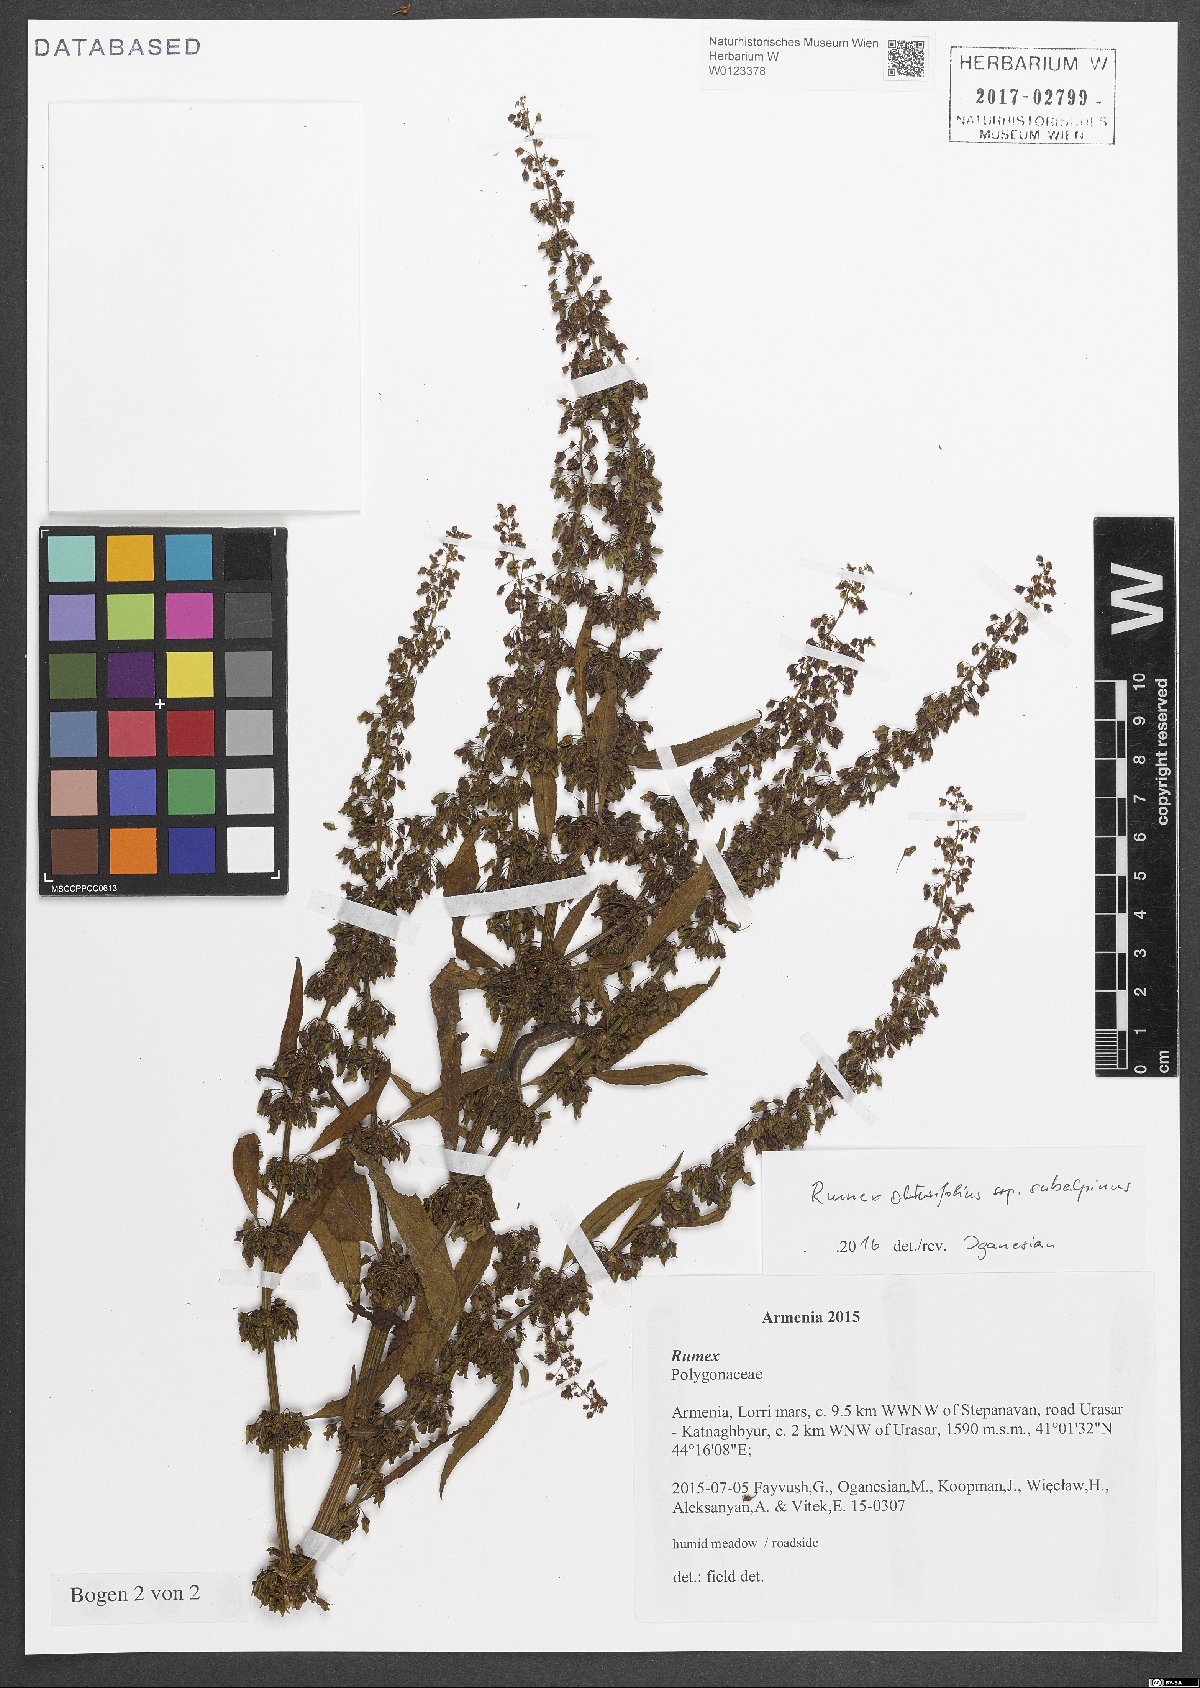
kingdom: Plantae
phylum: Tracheophyta
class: Magnoliopsida
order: Caryophyllales
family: Polygonaceae
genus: Rumex
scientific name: Rumex obtusifolius
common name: Bitter dock
